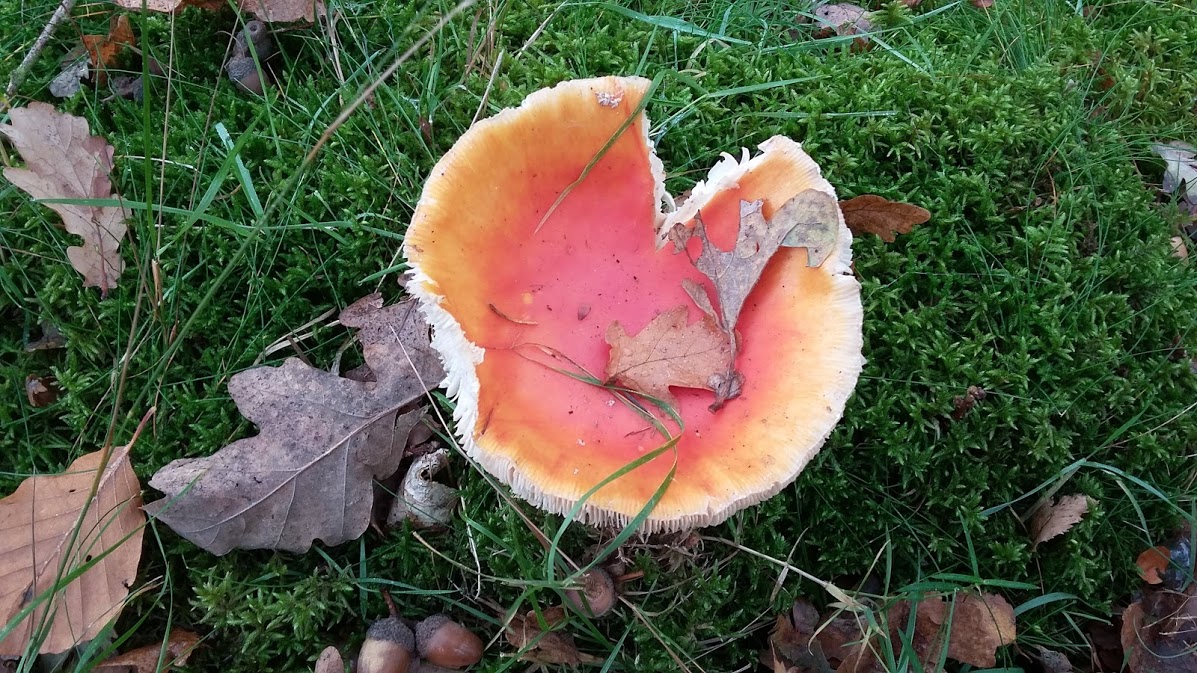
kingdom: Fungi
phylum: Basidiomycota
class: Agaricomycetes
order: Agaricales
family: Amanitaceae
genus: Amanita
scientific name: Amanita muscaria
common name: rød fluesvamp
